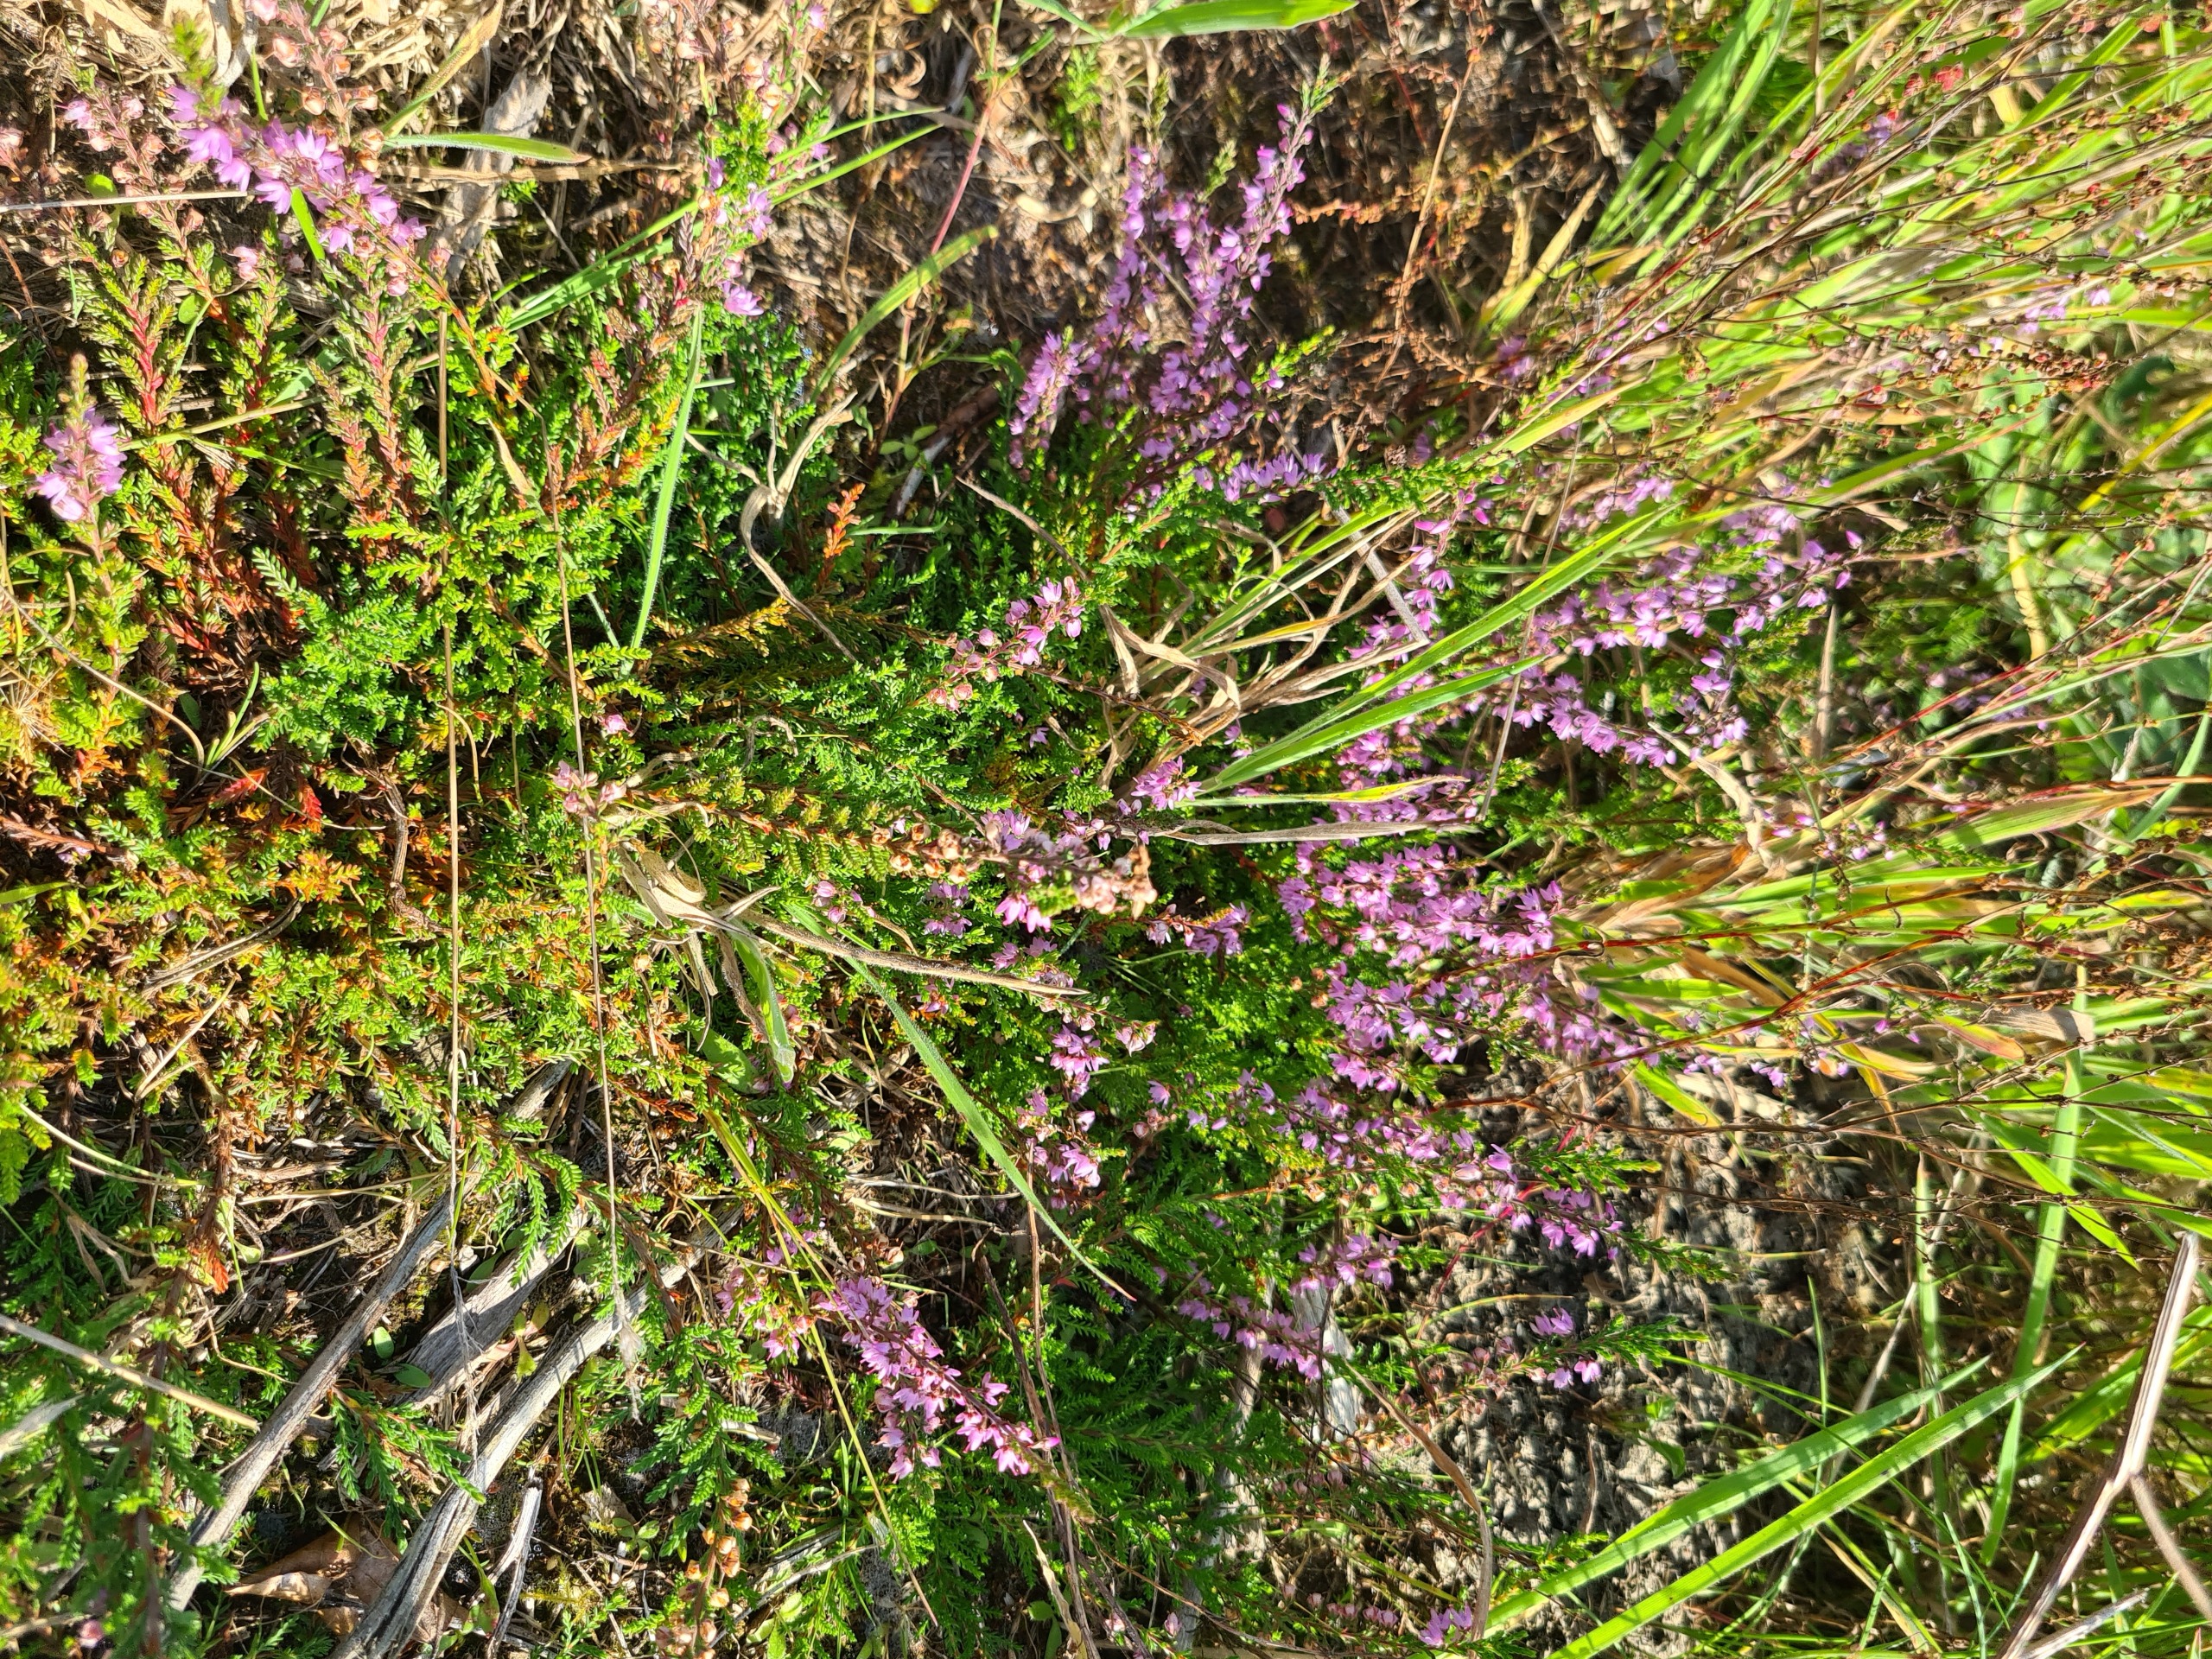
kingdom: Plantae
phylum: Tracheophyta
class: Magnoliopsida
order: Ericales
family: Ericaceae
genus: Calluna
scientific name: Calluna vulgaris
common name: Hedelyng
